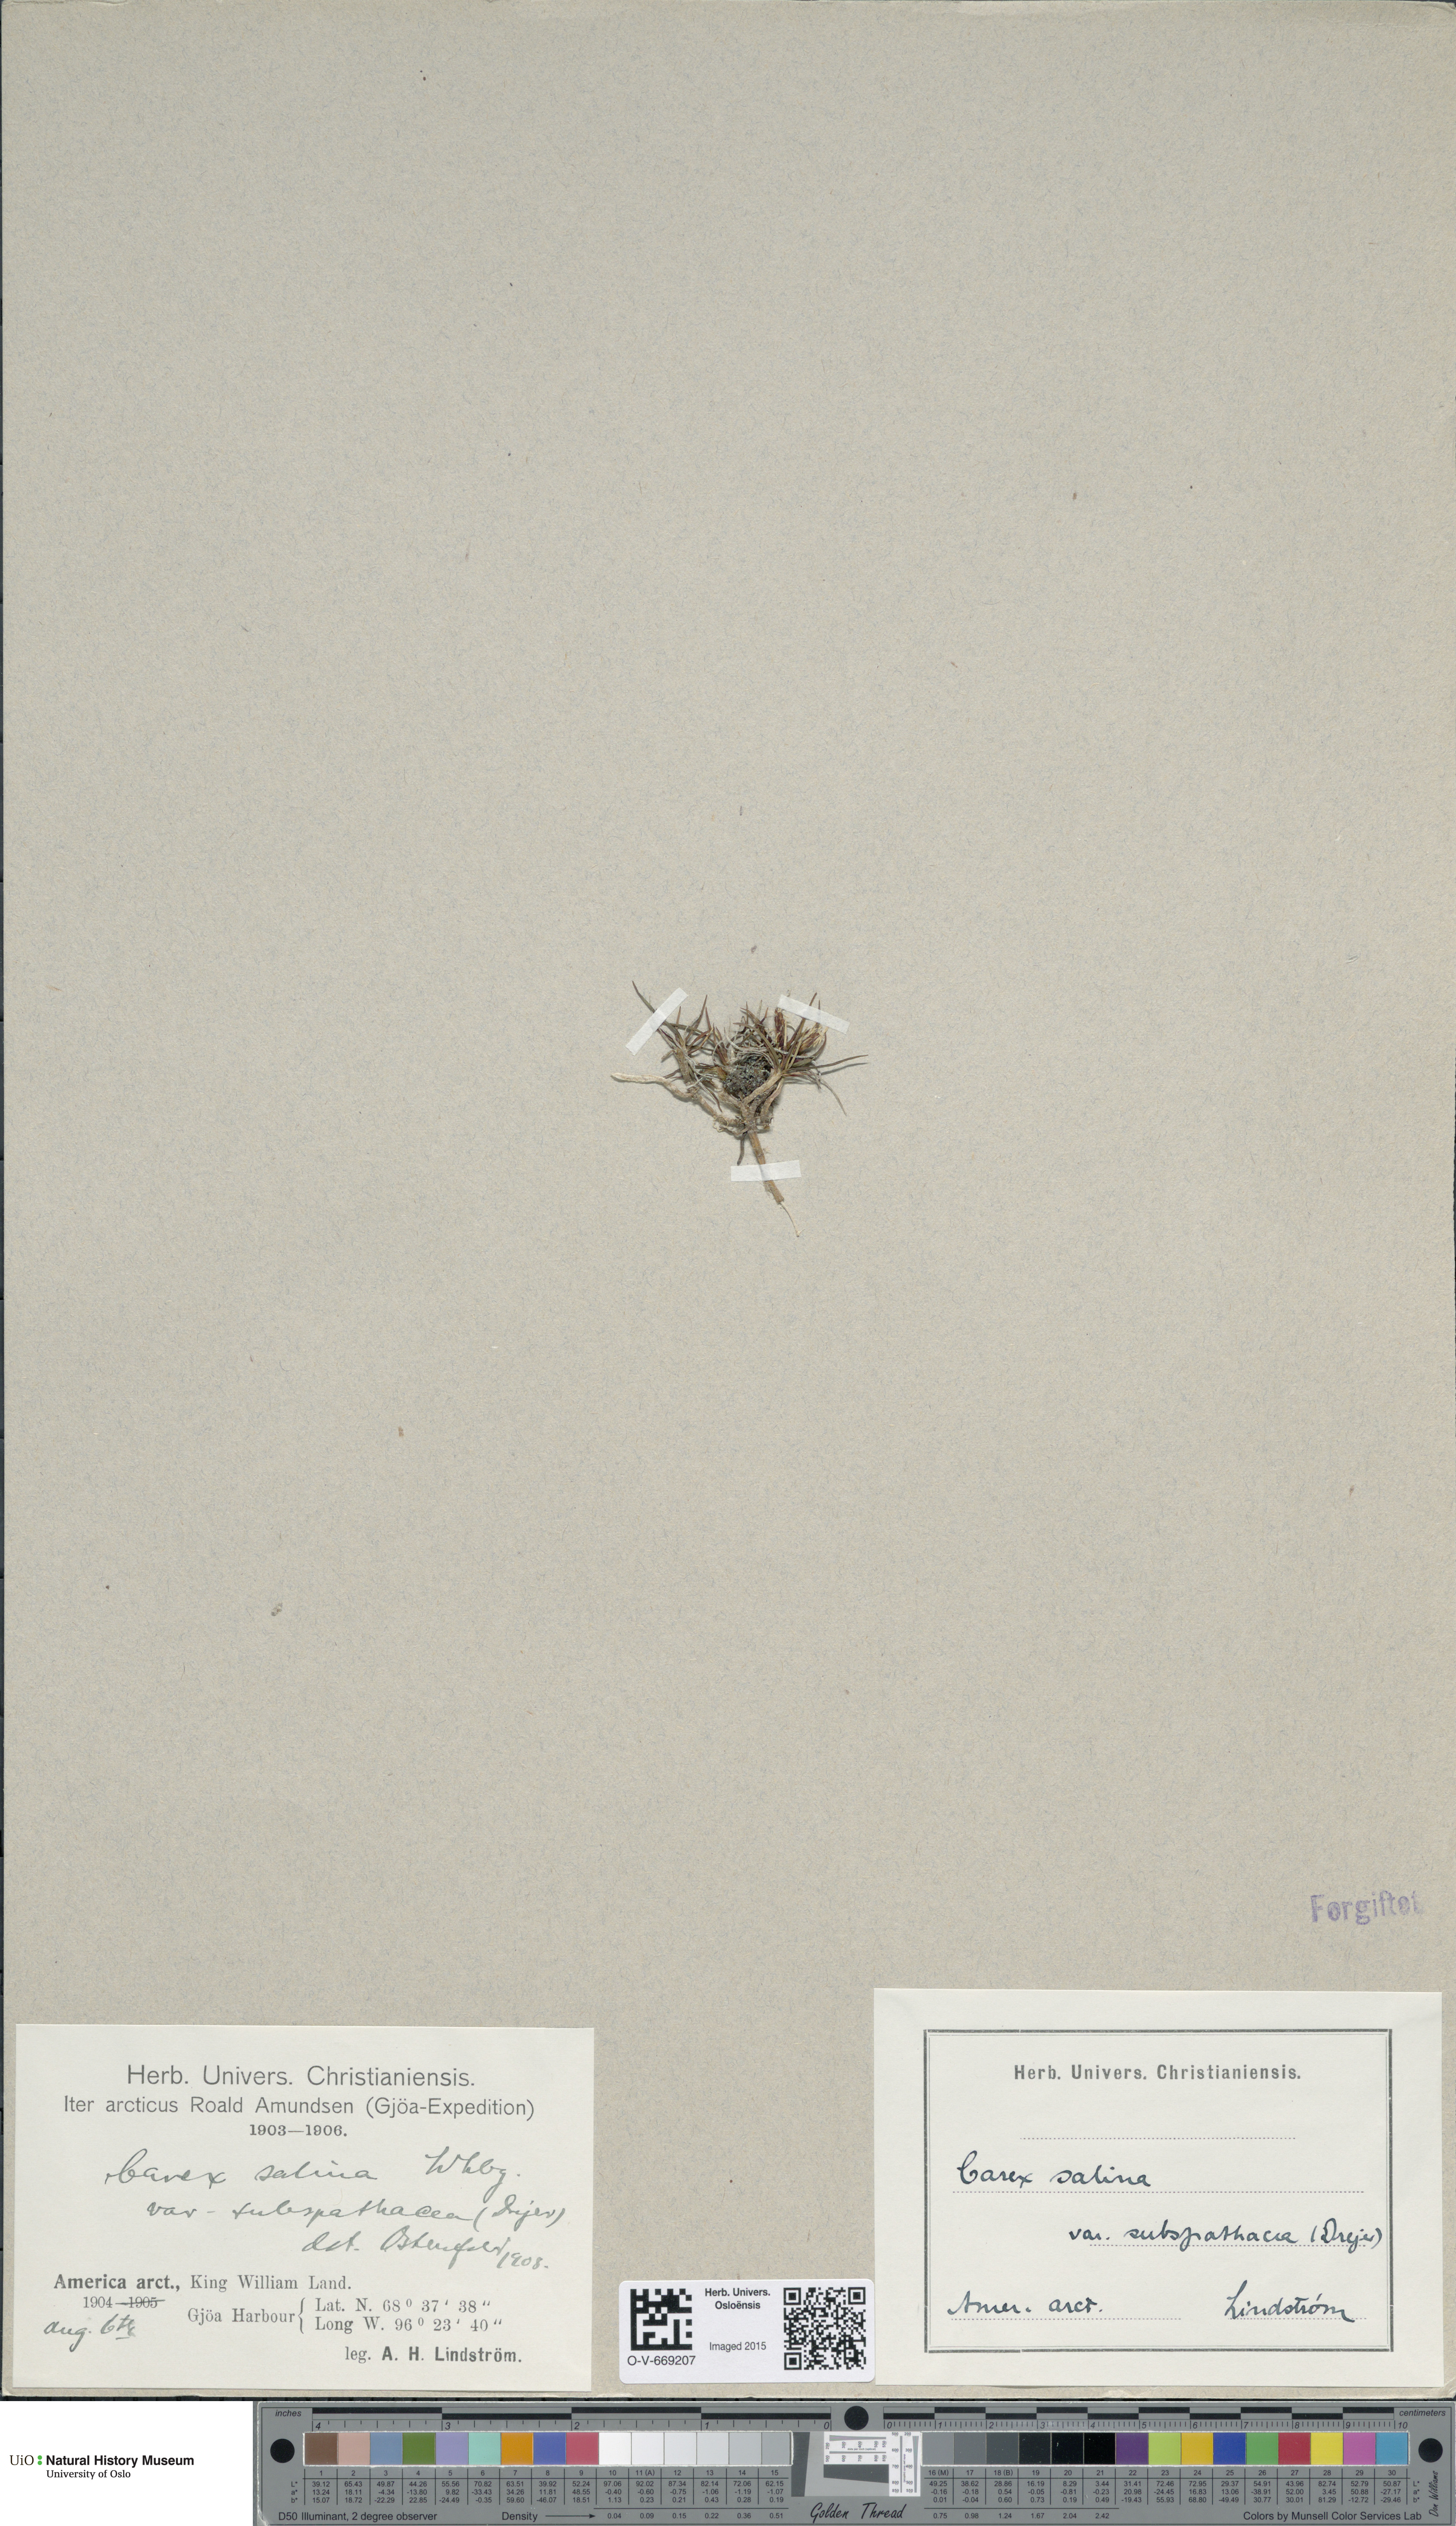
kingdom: Plantae
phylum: Tracheophyta
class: Liliopsida
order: Poales
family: Cyperaceae
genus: Carex
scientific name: Carex subspathacea
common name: Hoppner's sedge
